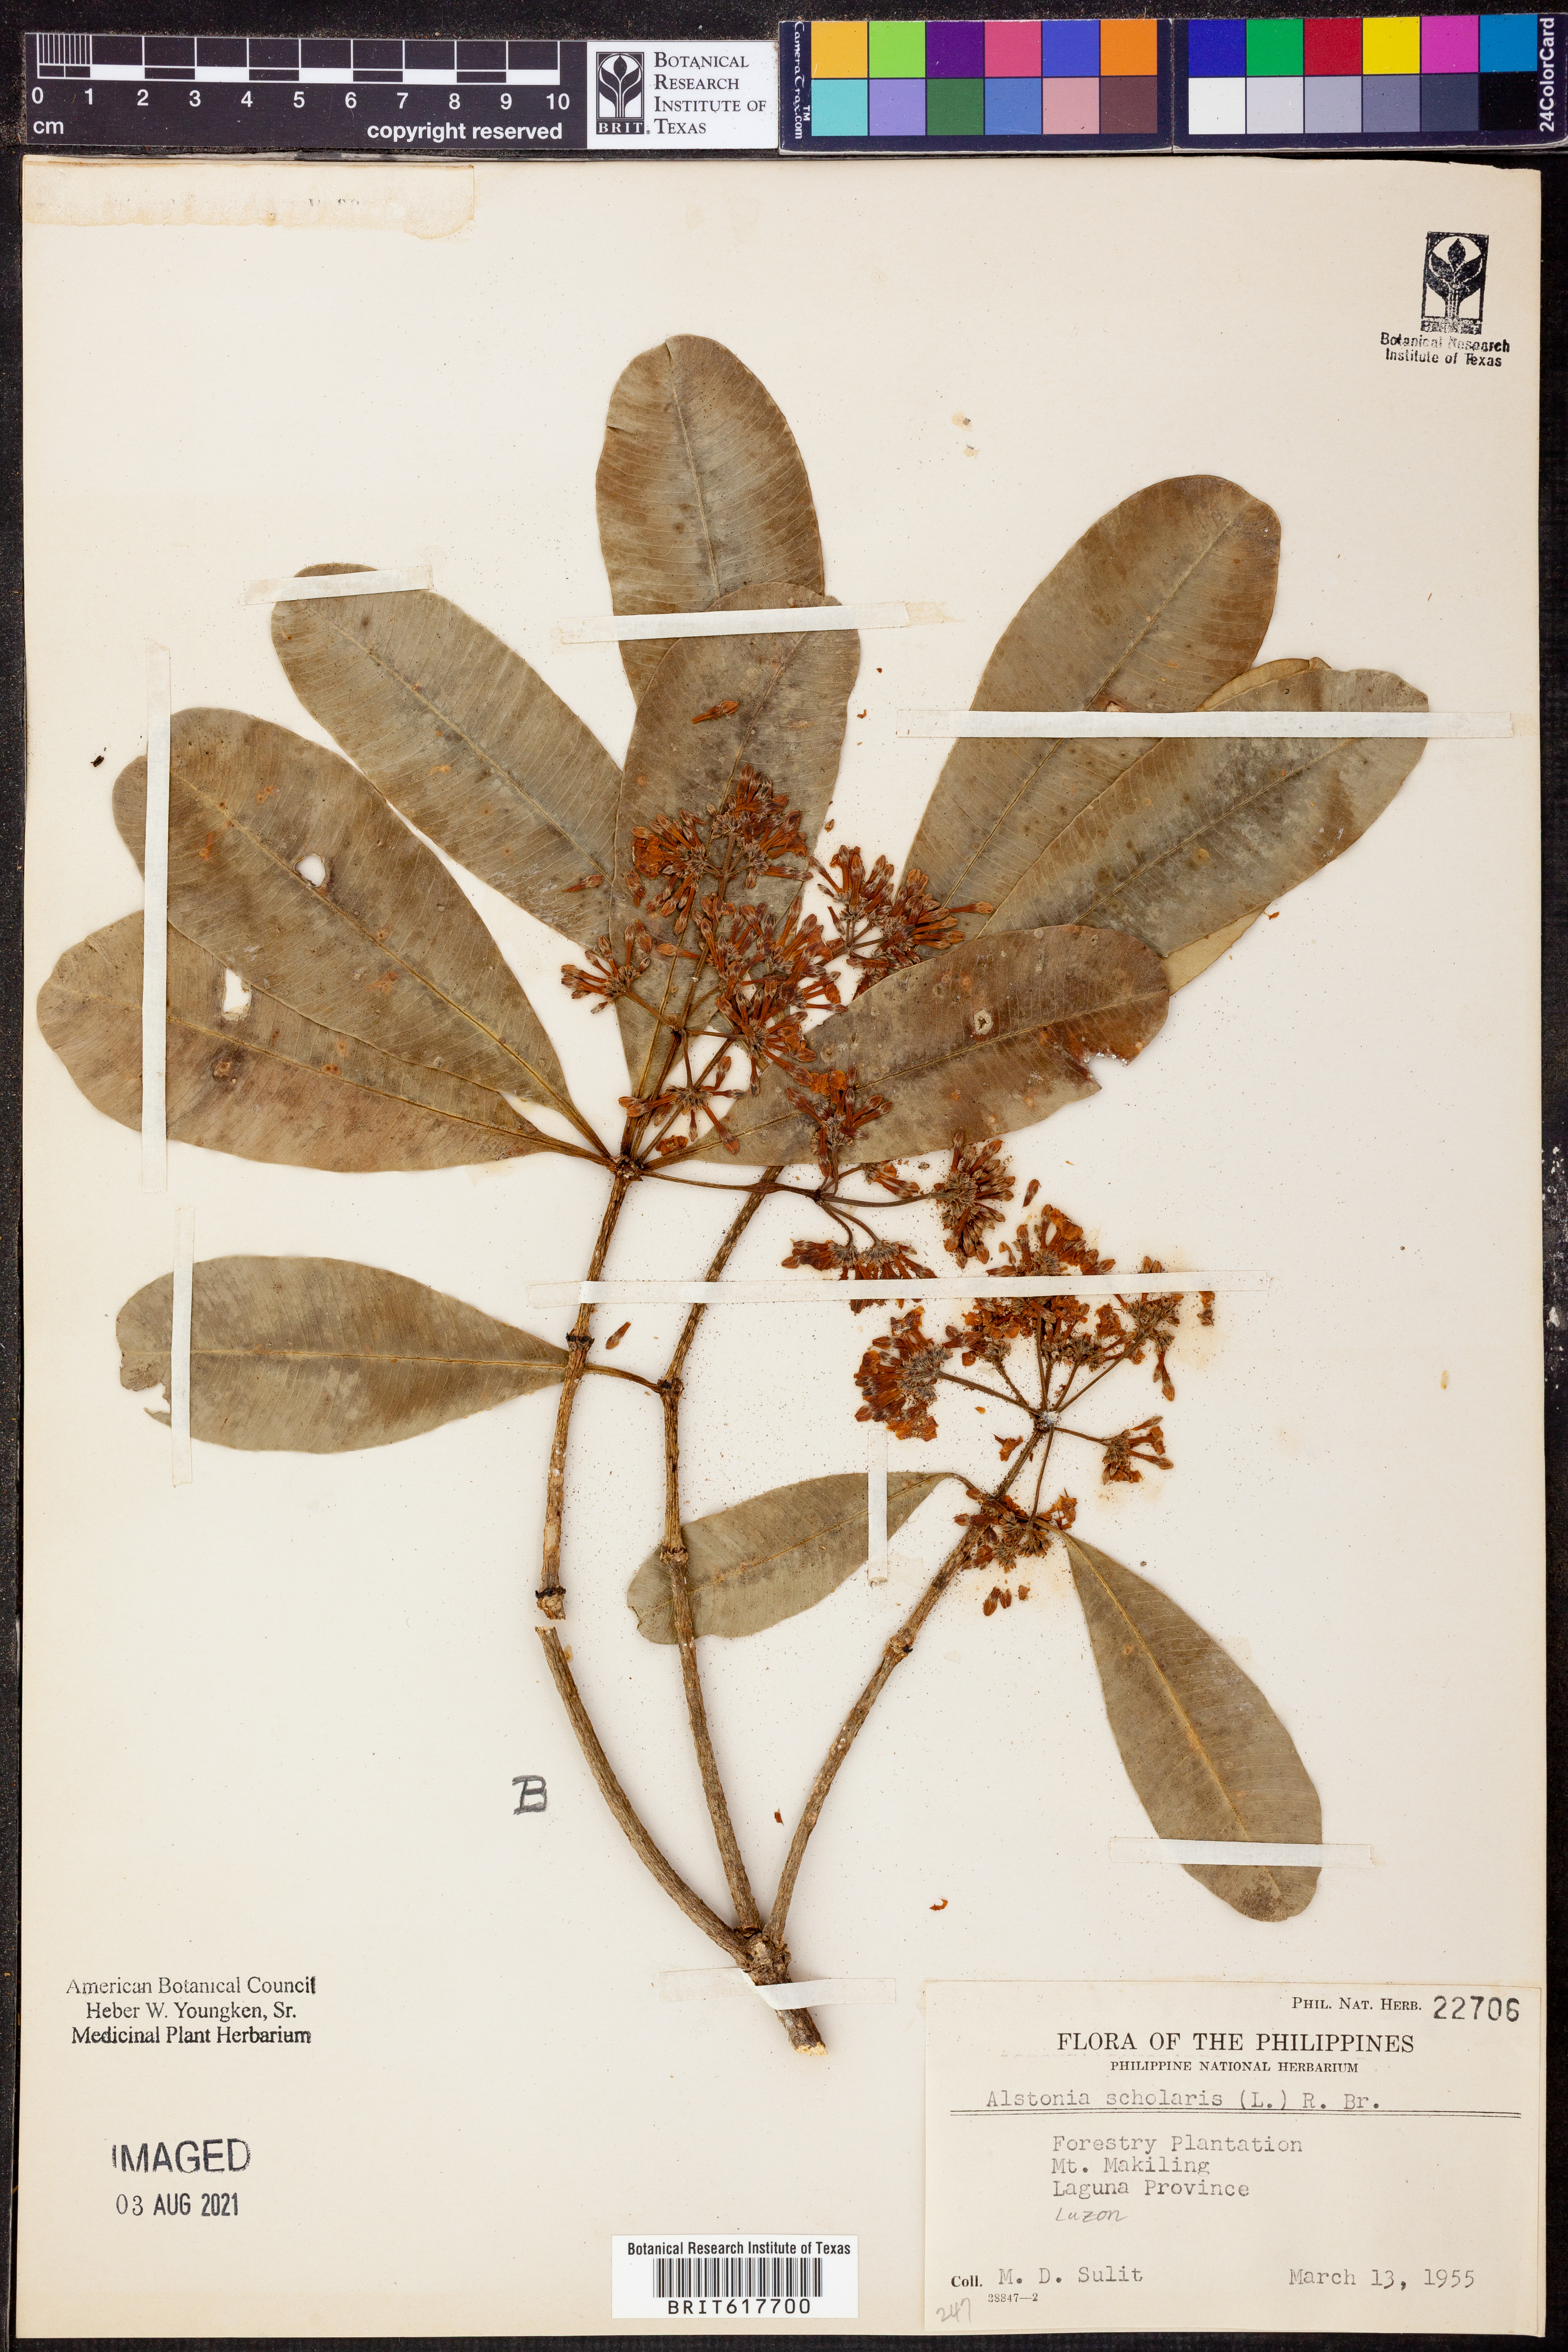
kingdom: Plantae
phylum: Tracheophyta
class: Magnoliopsida
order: Gentianales
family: Apocynaceae
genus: Alstonia
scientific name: Alstonia scholaris
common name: White cheesewood
